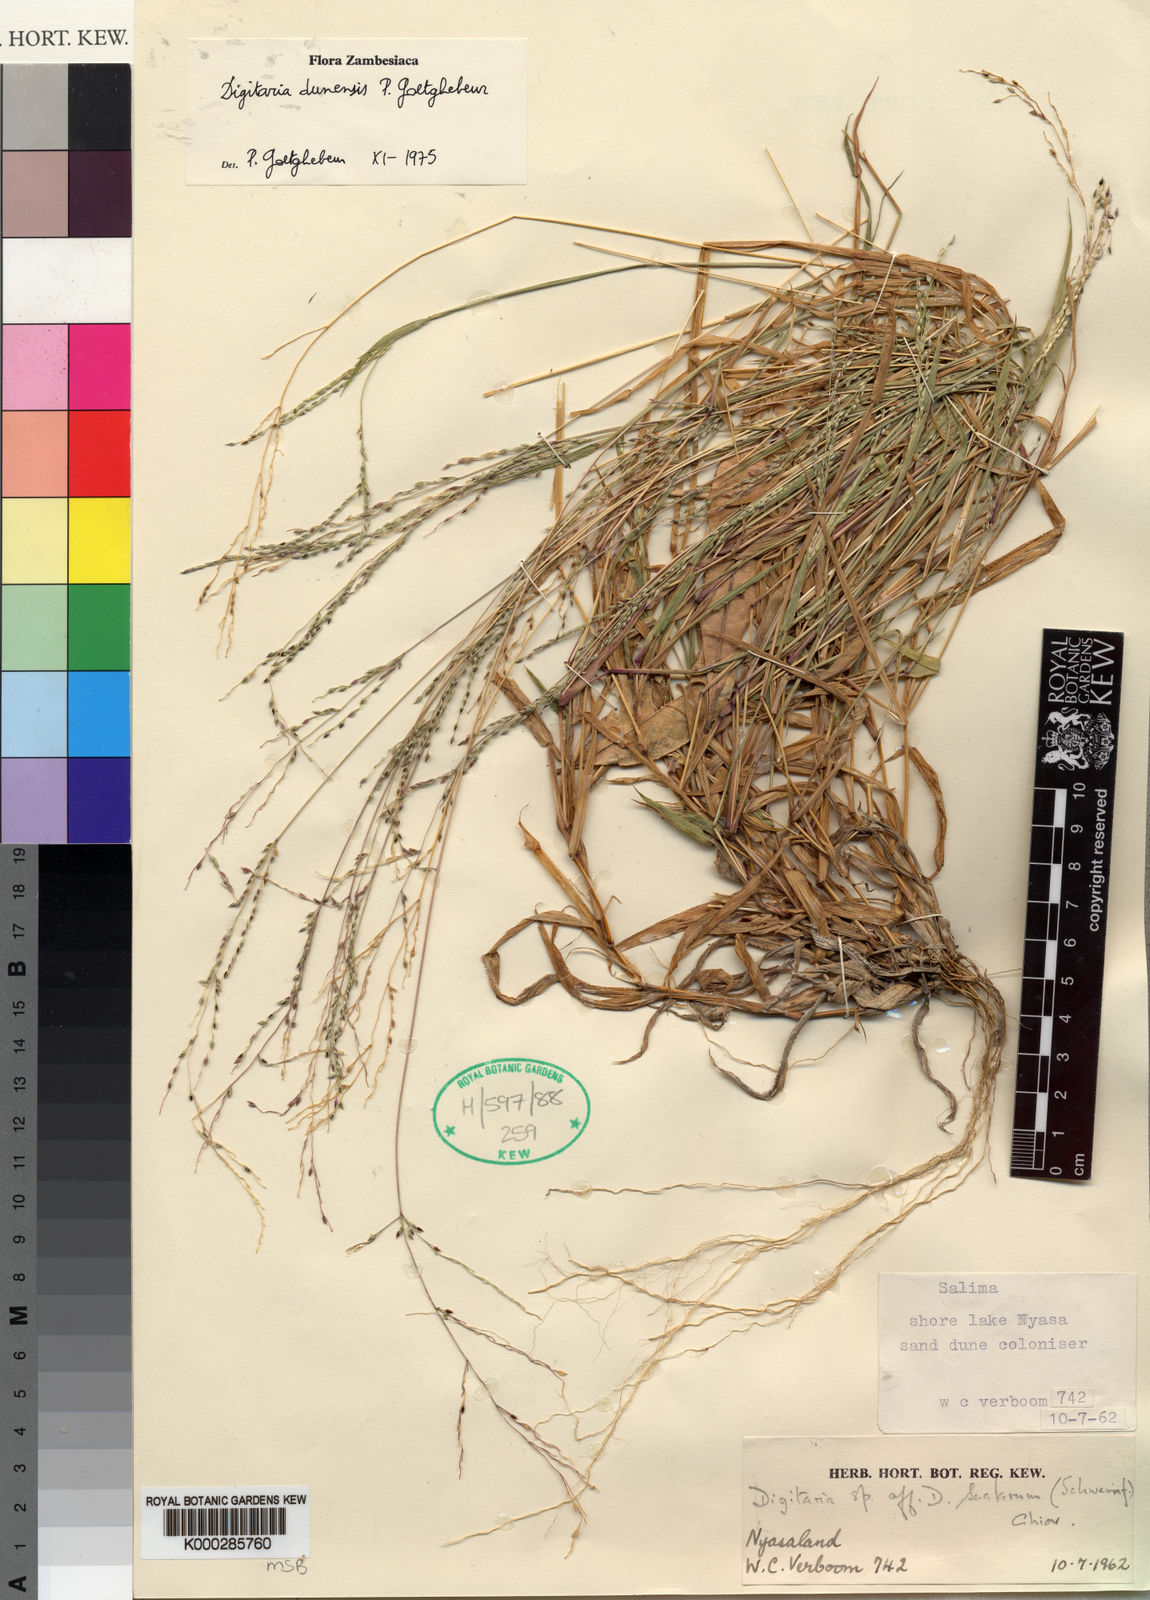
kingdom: Plantae
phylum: Tracheophyta
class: Liliopsida
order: Poales
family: Poaceae
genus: Digitaria
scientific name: Digitaria dunensis
